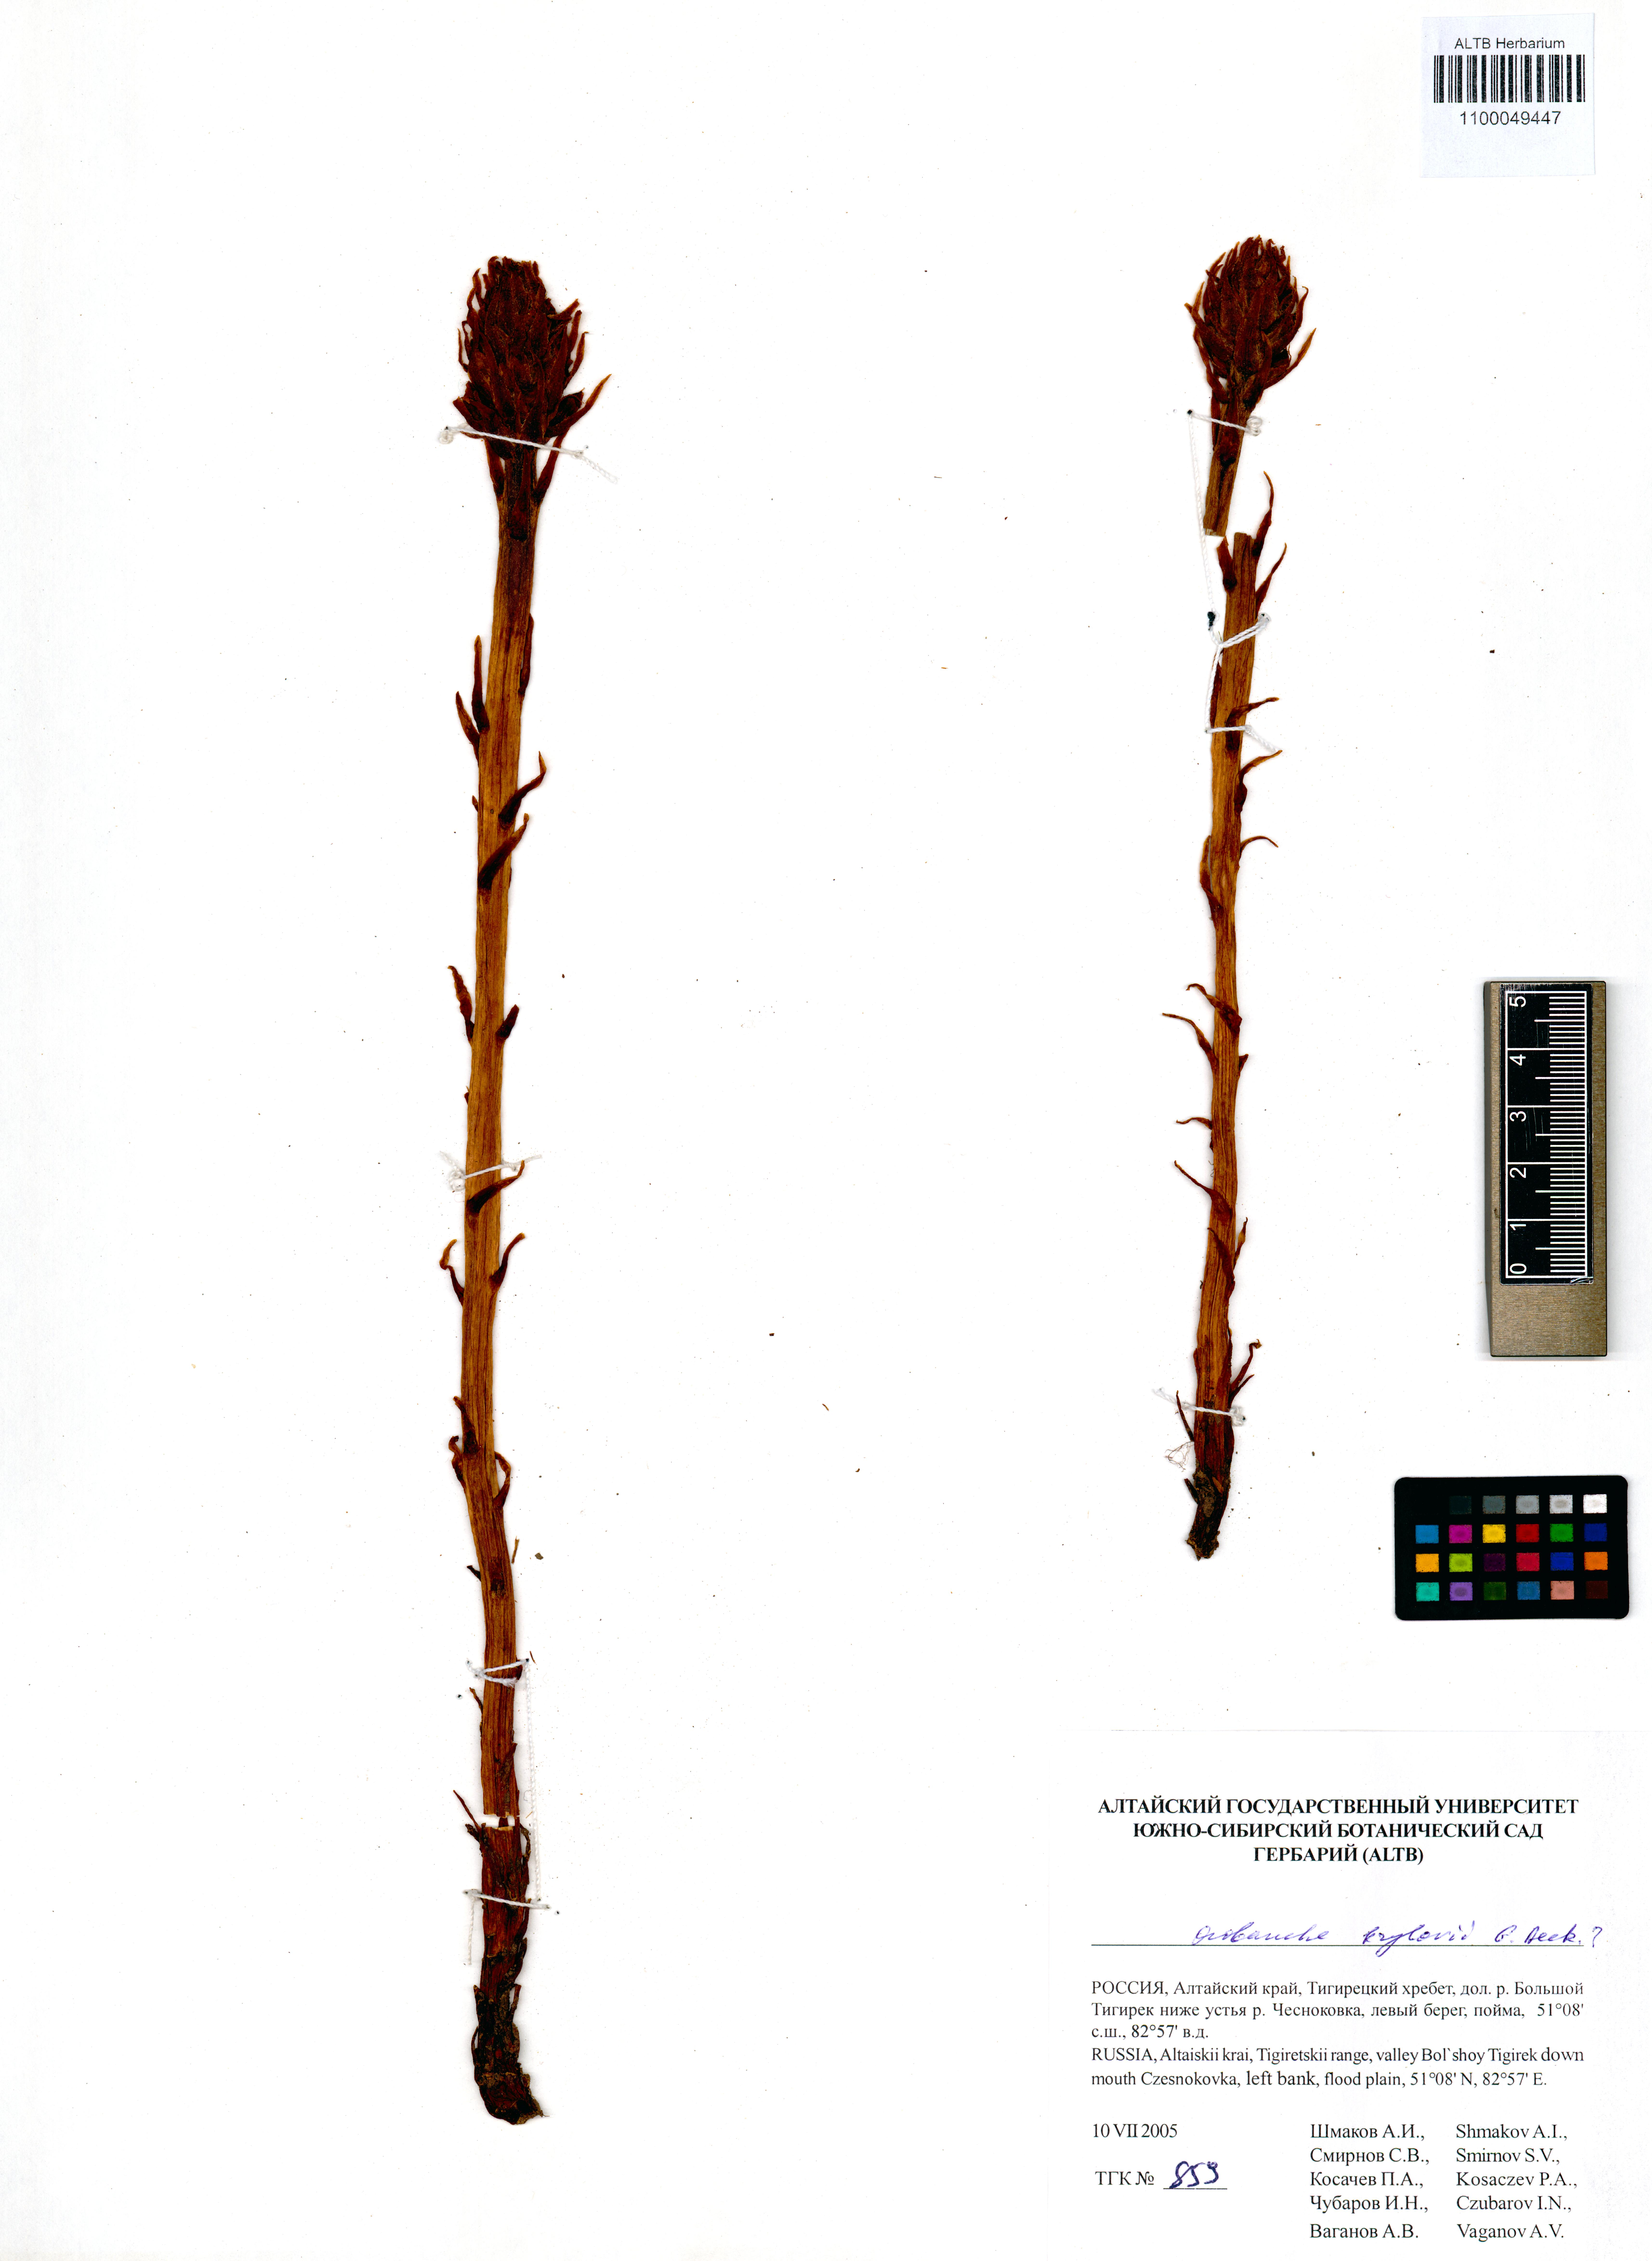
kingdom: Plantae
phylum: Tracheophyta
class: Magnoliopsida
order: Lamiales
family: Orobanchaceae
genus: Orobanche
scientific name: Orobanche krylowii
